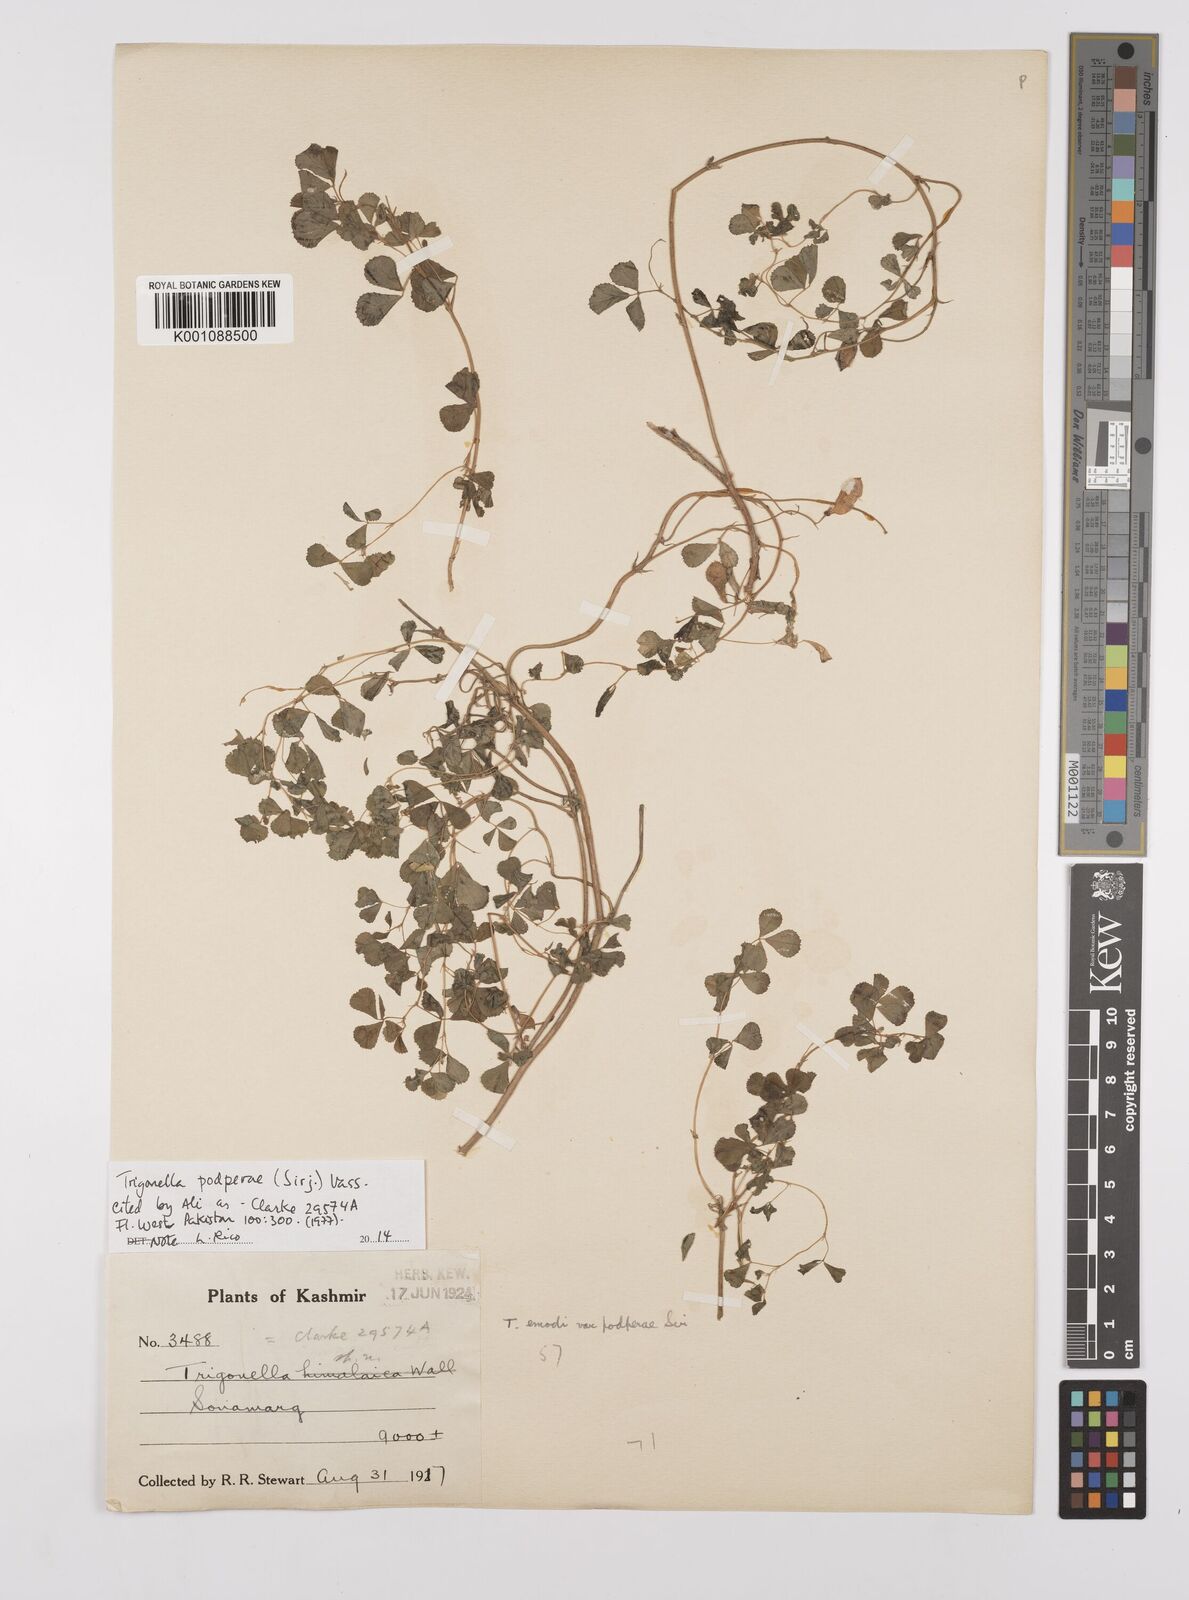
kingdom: Plantae
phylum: Tracheophyta
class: Magnoliopsida
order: Fabales
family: Fabaceae
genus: Trigonella
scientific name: Trigonella podperae
